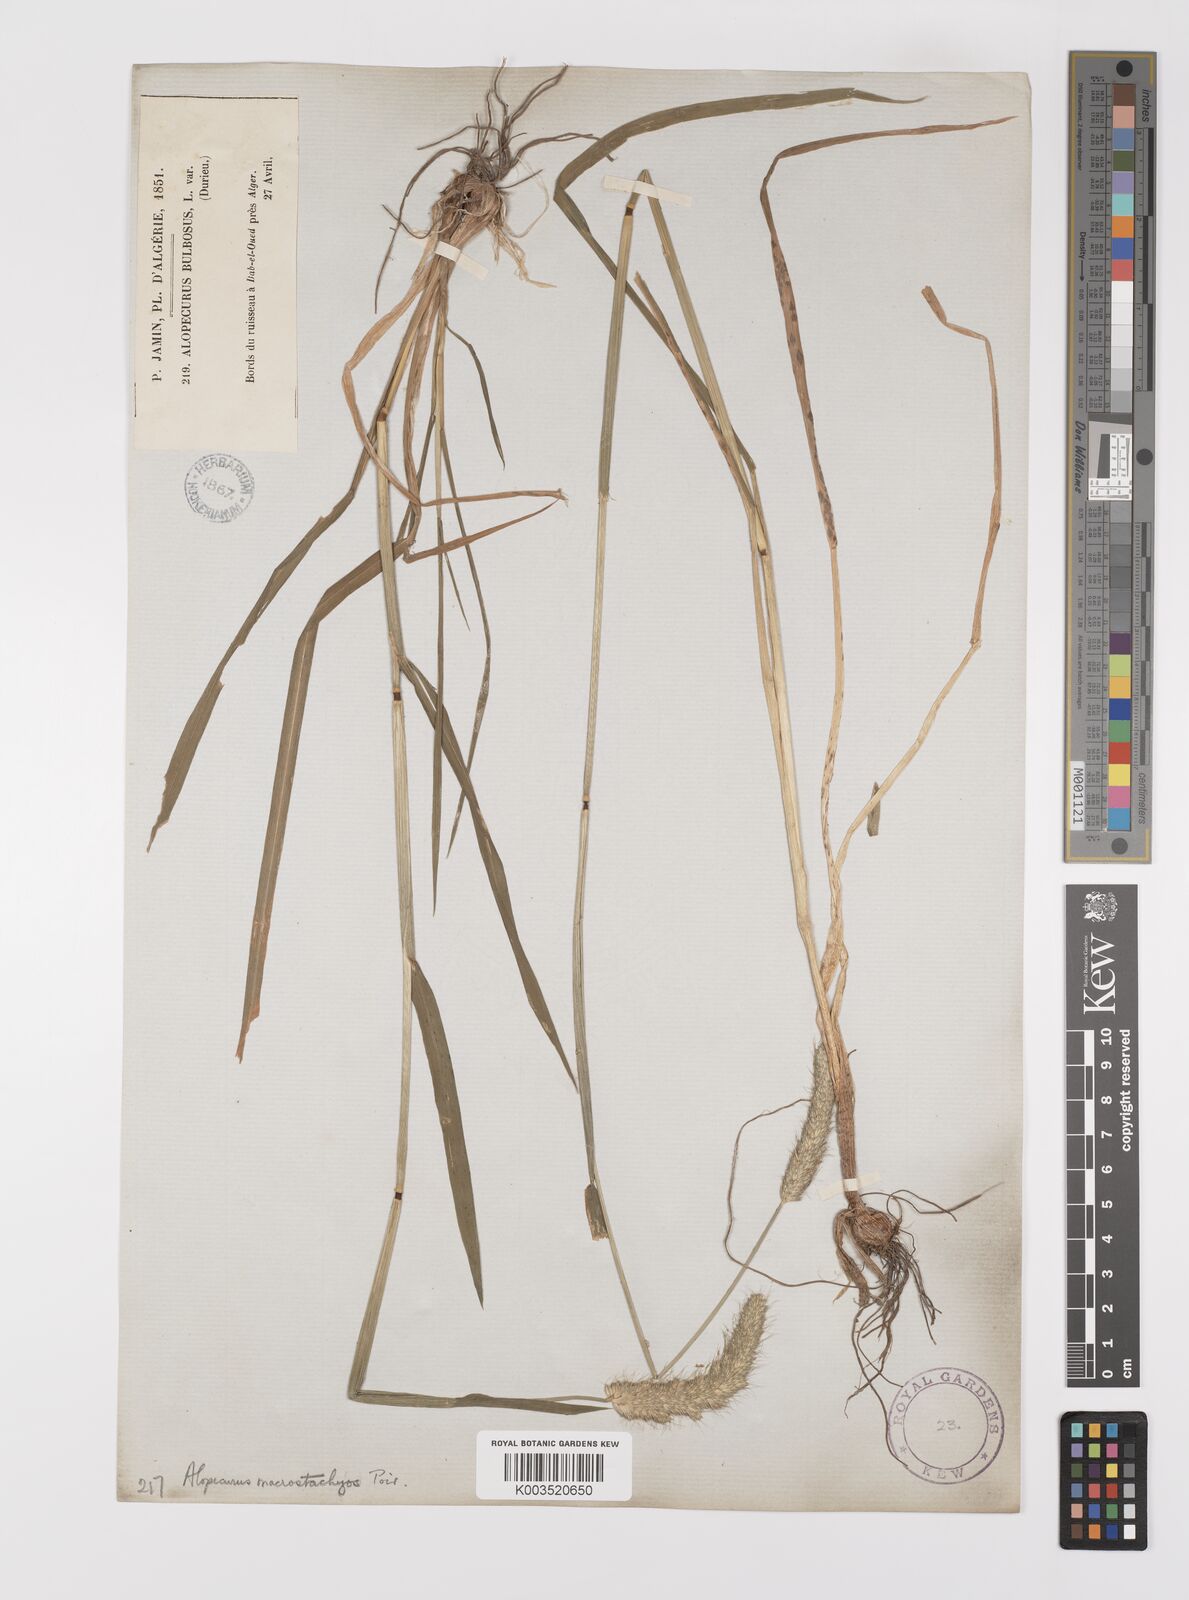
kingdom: Plantae
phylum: Tracheophyta
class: Liliopsida
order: Poales
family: Poaceae
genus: Alopecurus
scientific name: Alopecurus bulbosus
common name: Bulbous foxtail
